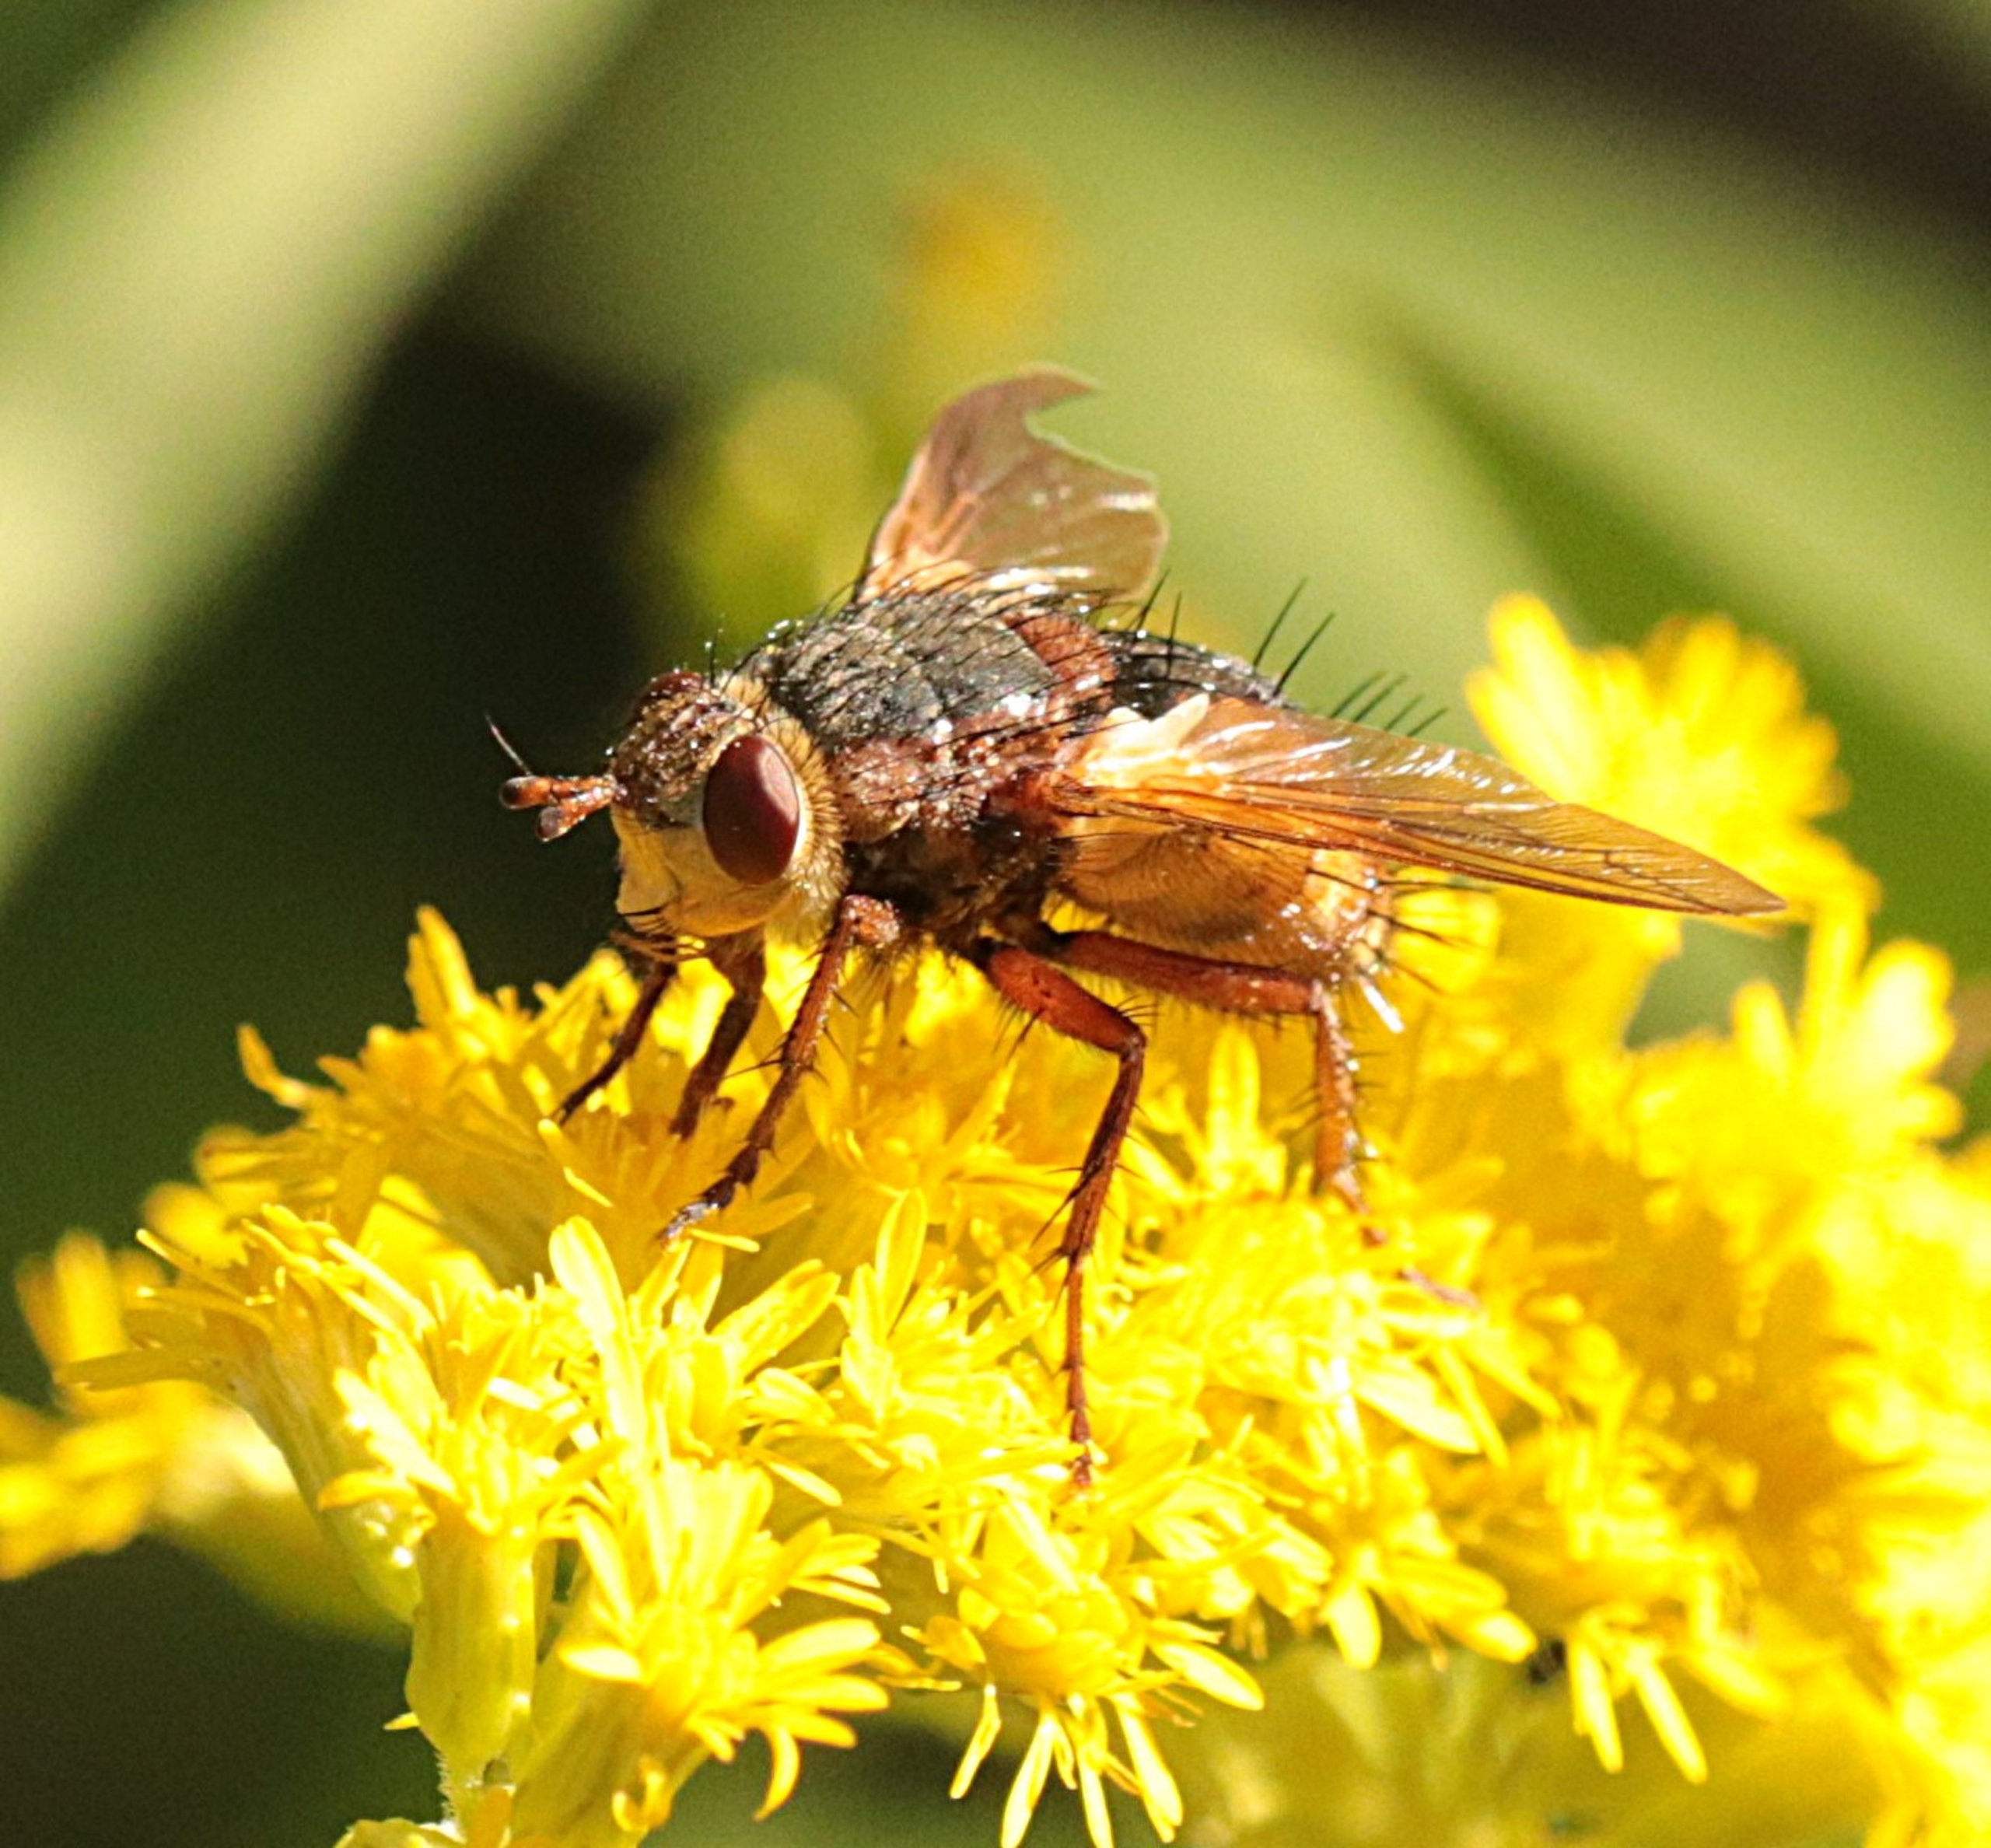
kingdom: Animalia
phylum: Arthropoda
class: Insecta
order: Diptera
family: Tachinidae
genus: Tachina
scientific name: Tachina fera
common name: Mellemfluen oskar
